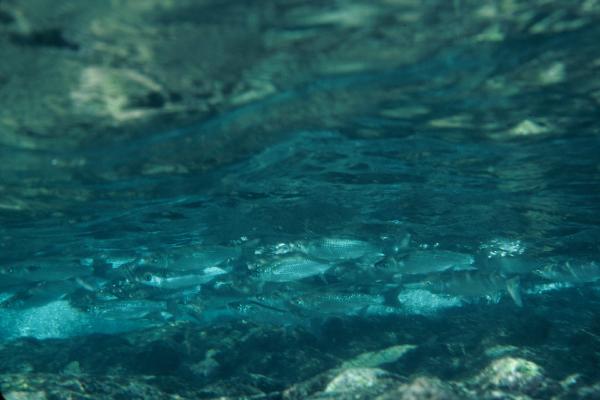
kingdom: Animalia
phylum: Chordata
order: Mugiliformes
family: Mugilidae
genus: Neomyxus
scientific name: Neomyxus leuciscus
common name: Acute-jawed mullet
